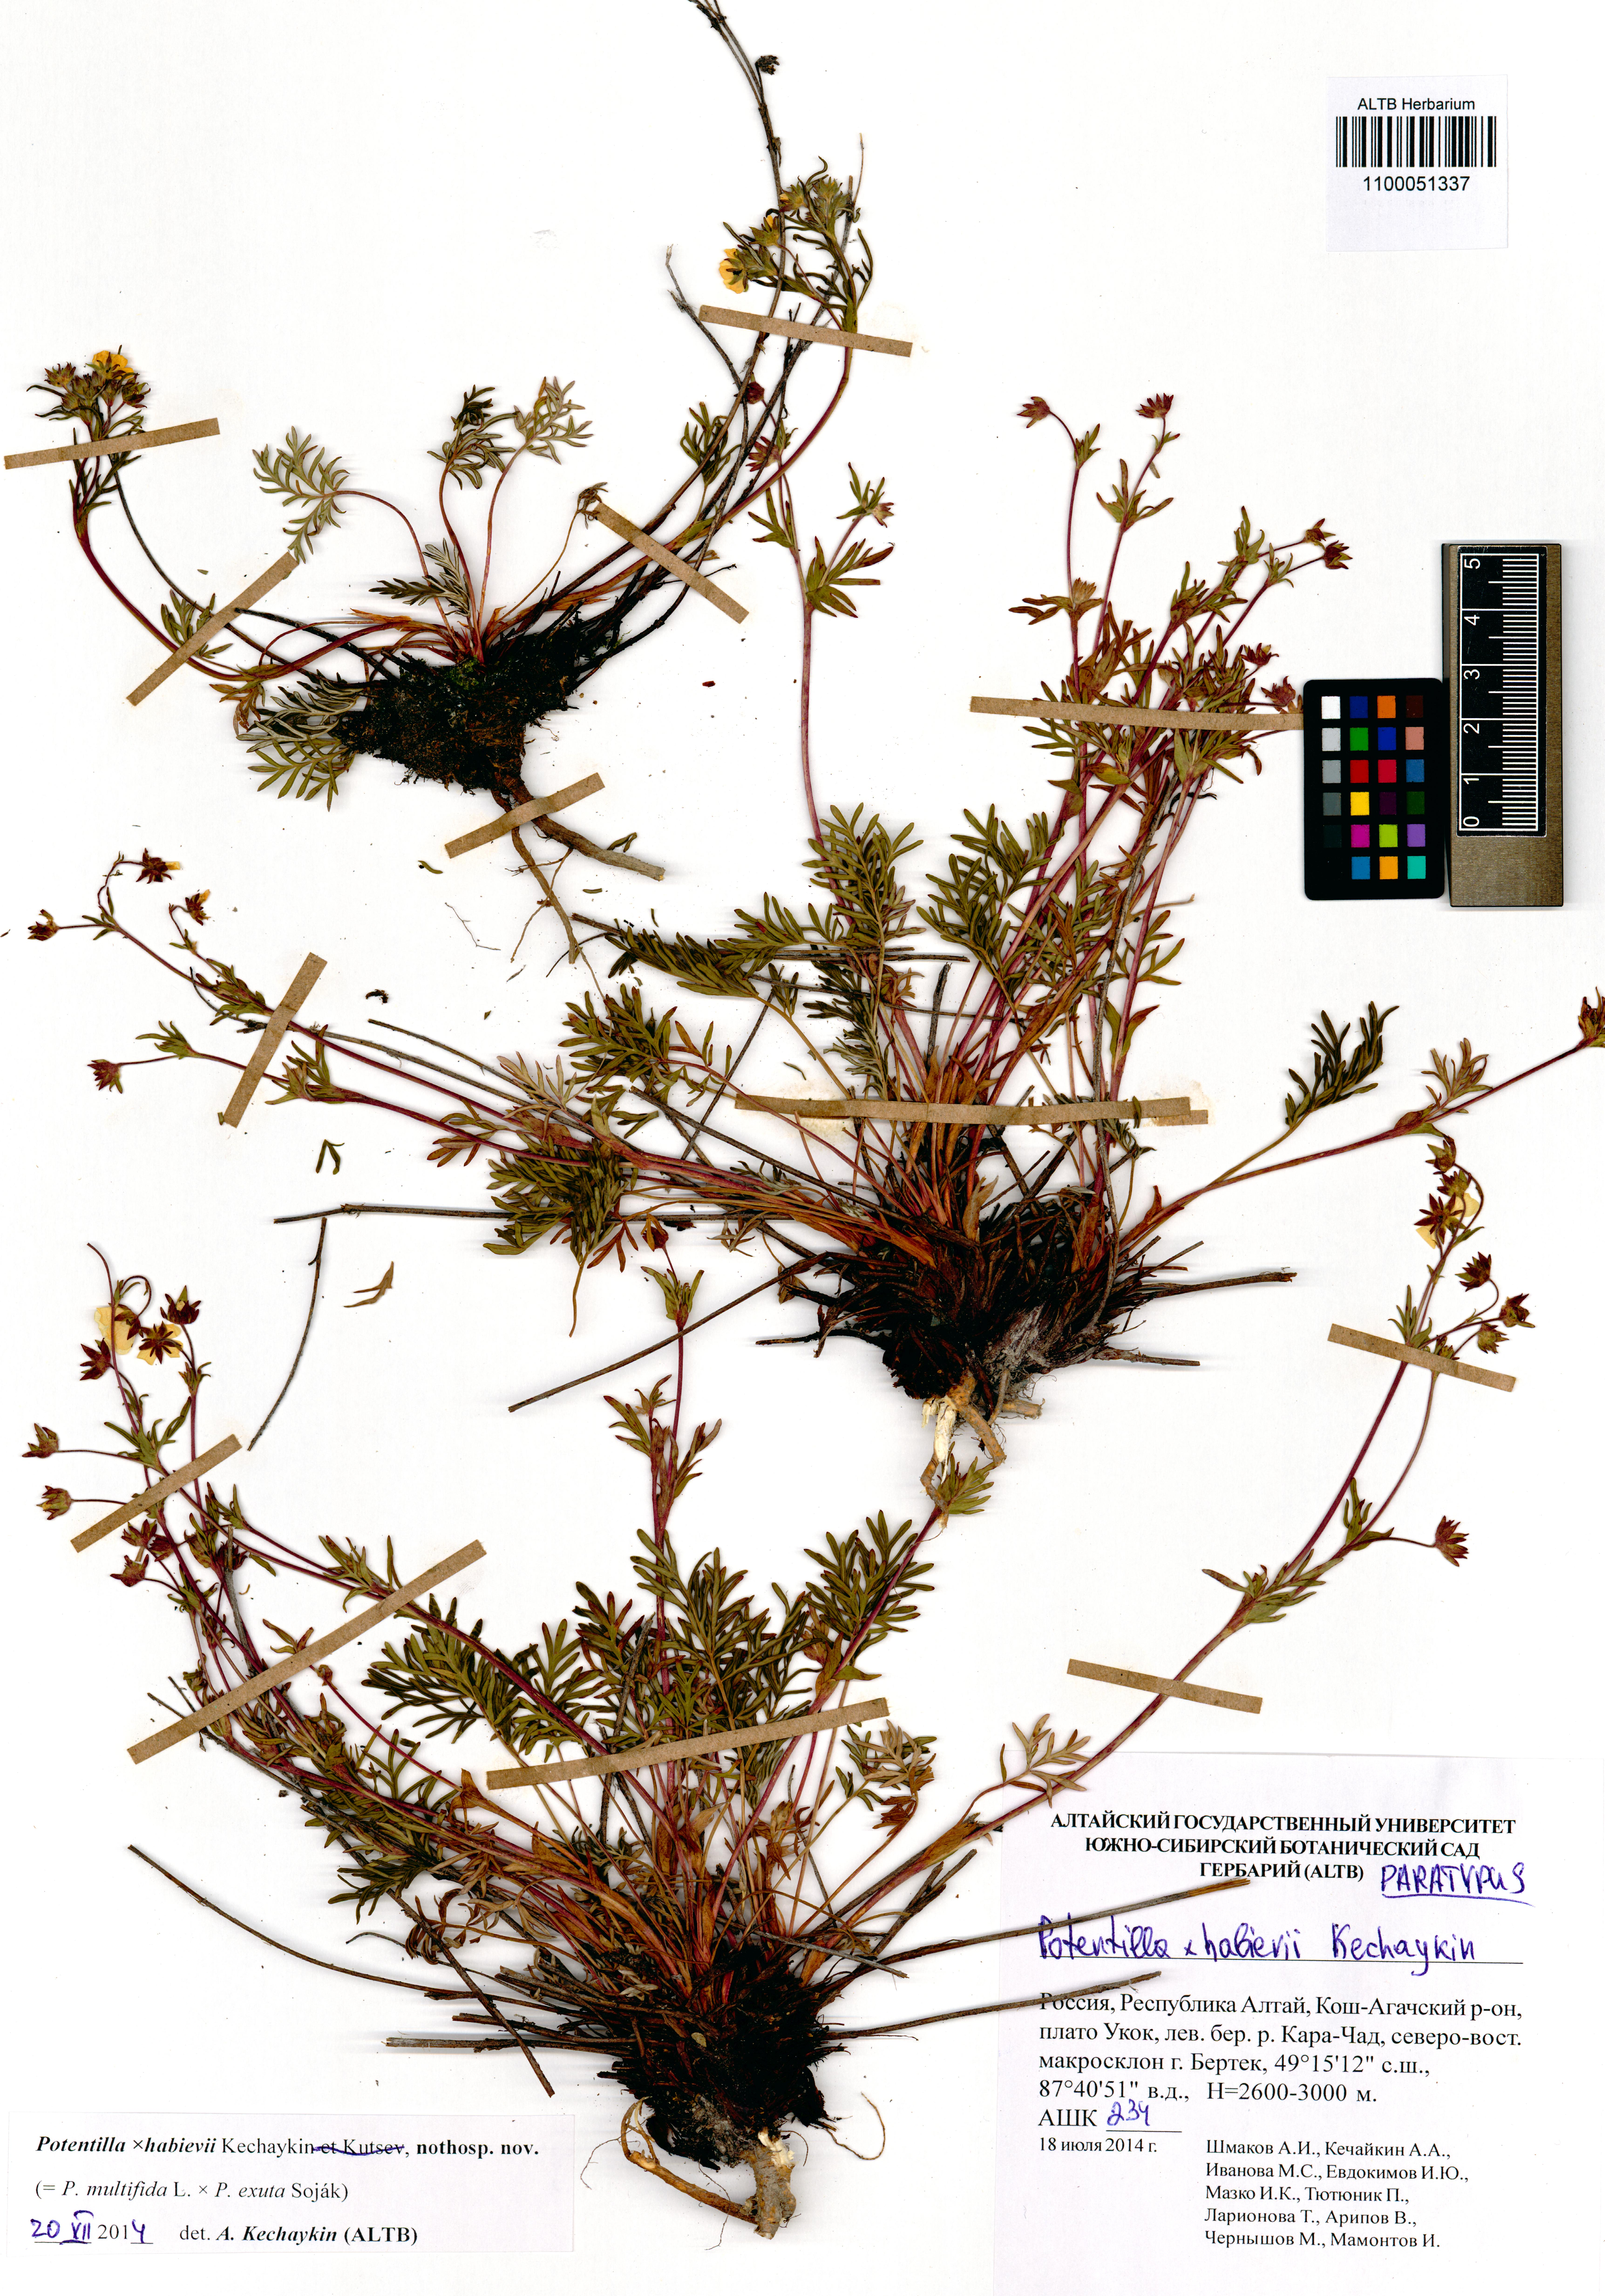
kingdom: Plantae
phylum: Tracheophyta
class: Magnoliopsida
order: Rosales
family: Rosaceae
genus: Potentilla
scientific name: Potentilla habievii
